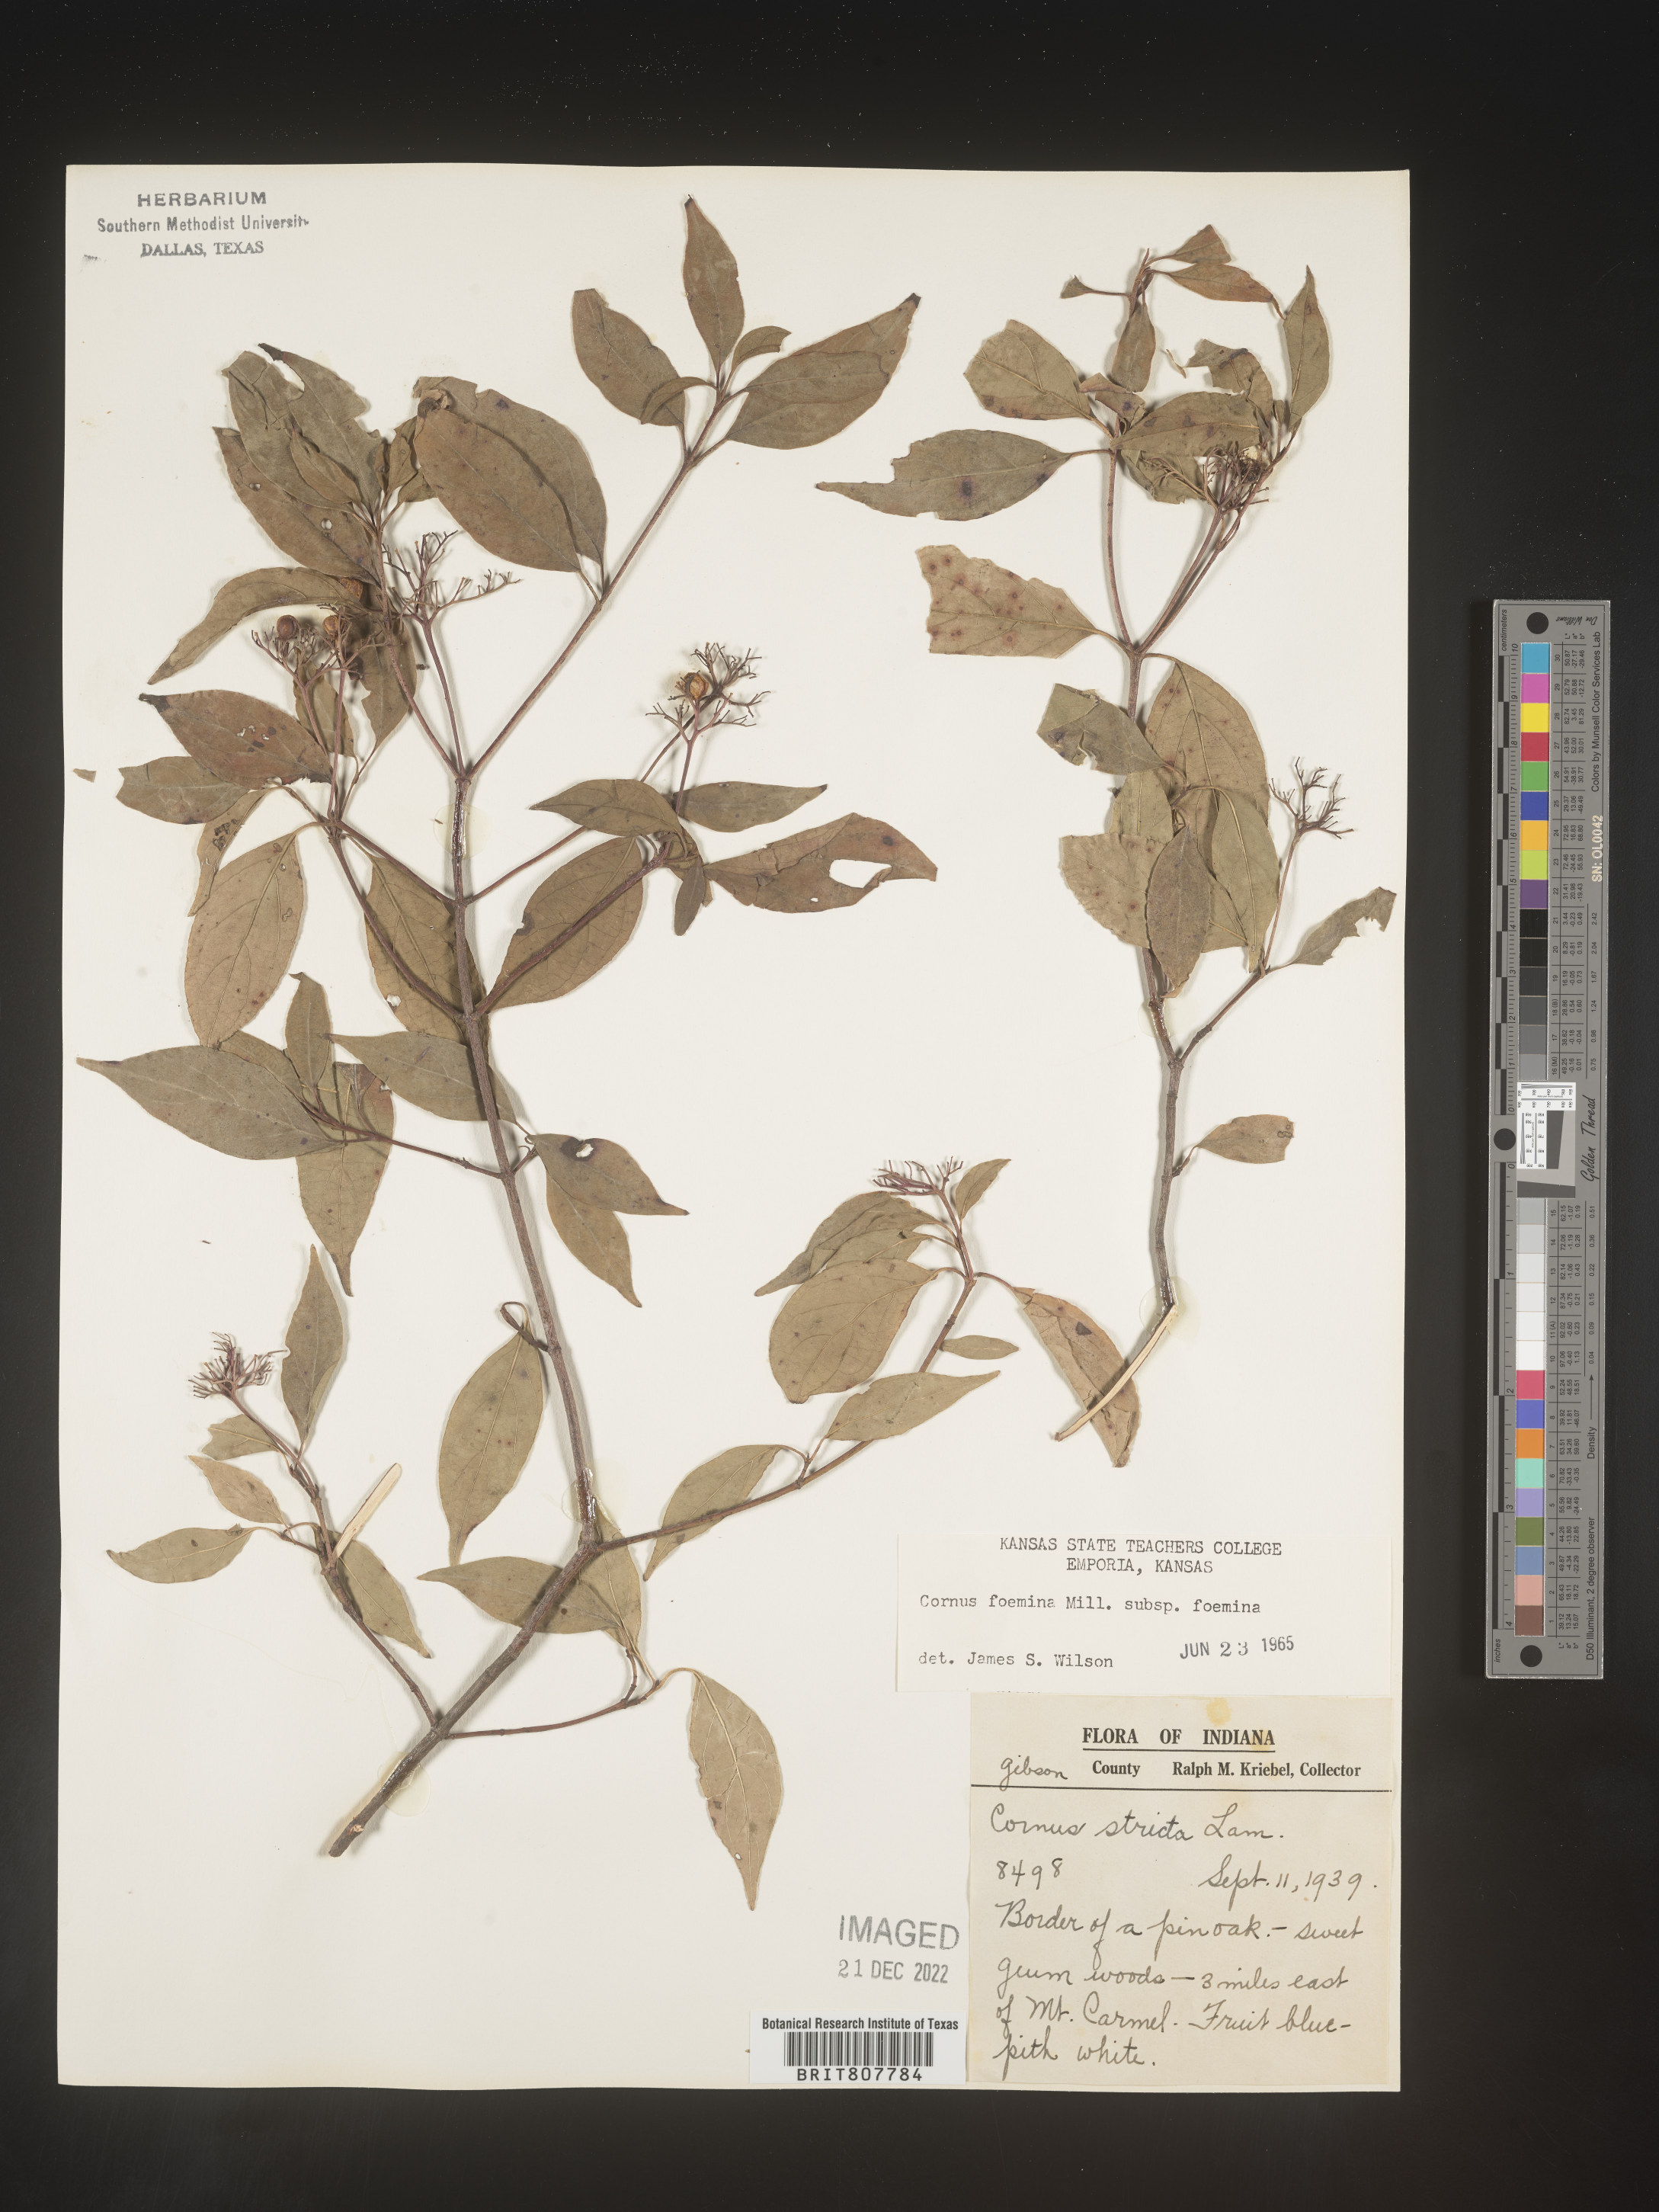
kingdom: Plantae
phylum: Tracheophyta
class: Magnoliopsida
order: Cornales
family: Cornaceae
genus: Cornus
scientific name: Cornus foemina
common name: Swamp dogwood
